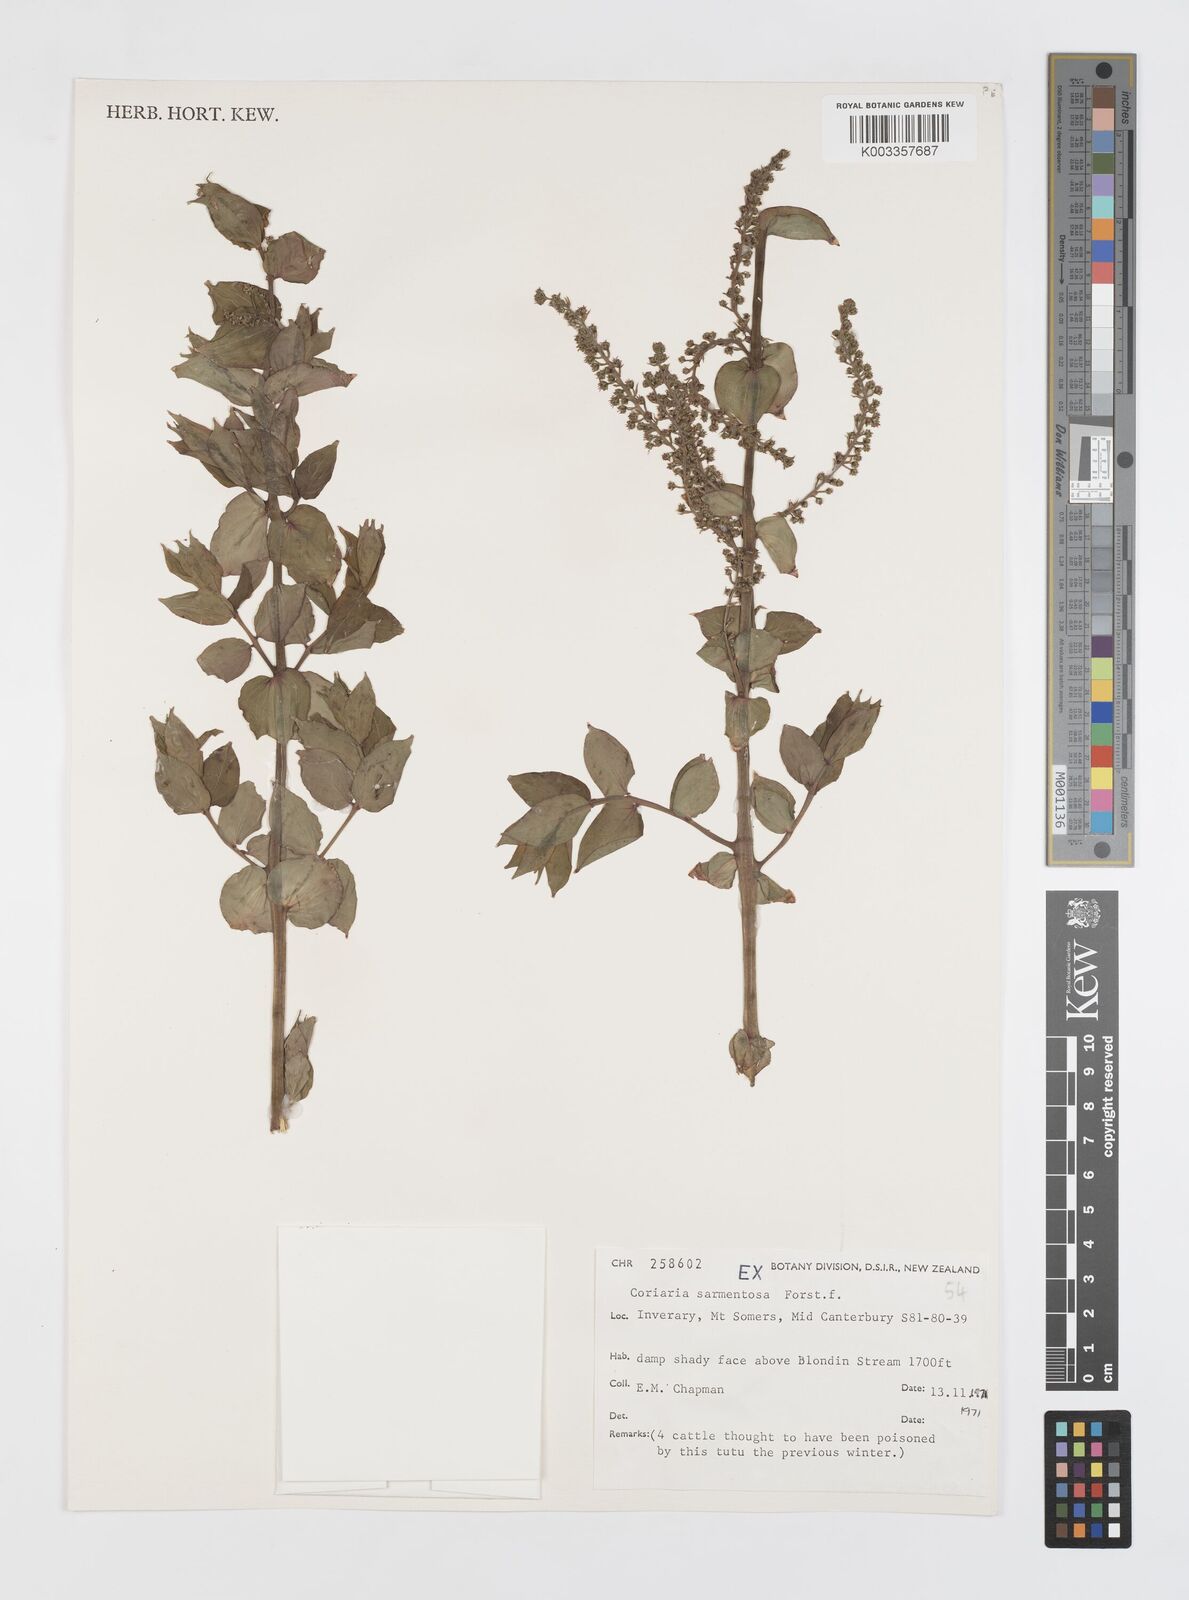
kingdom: Plantae
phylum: Tracheophyta
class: Magnoliopsida
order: Cucurbitales
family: Coriariaceae
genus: Coriaria
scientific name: Coriaria sarmentosa
